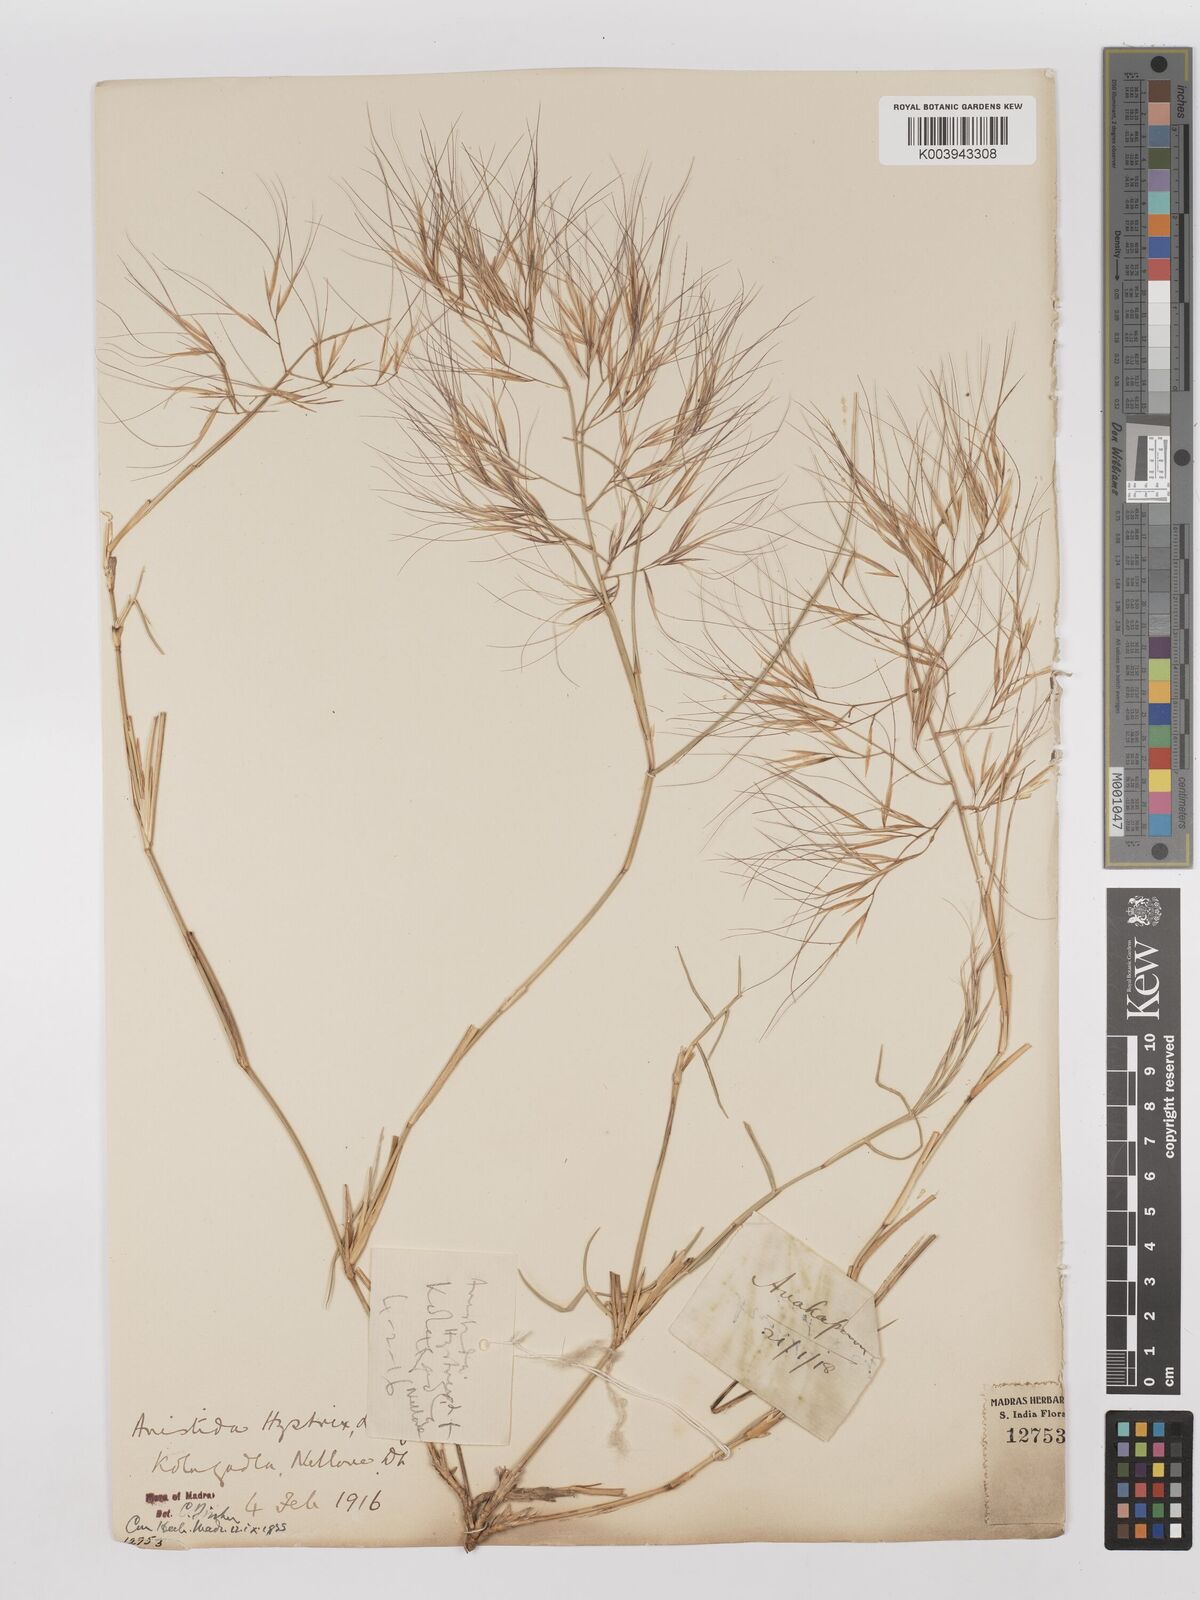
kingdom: Plantae
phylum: Tracheophyta
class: Liliopsida
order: Poales
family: Poaceae
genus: Aristida
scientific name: Aristida hystrix
